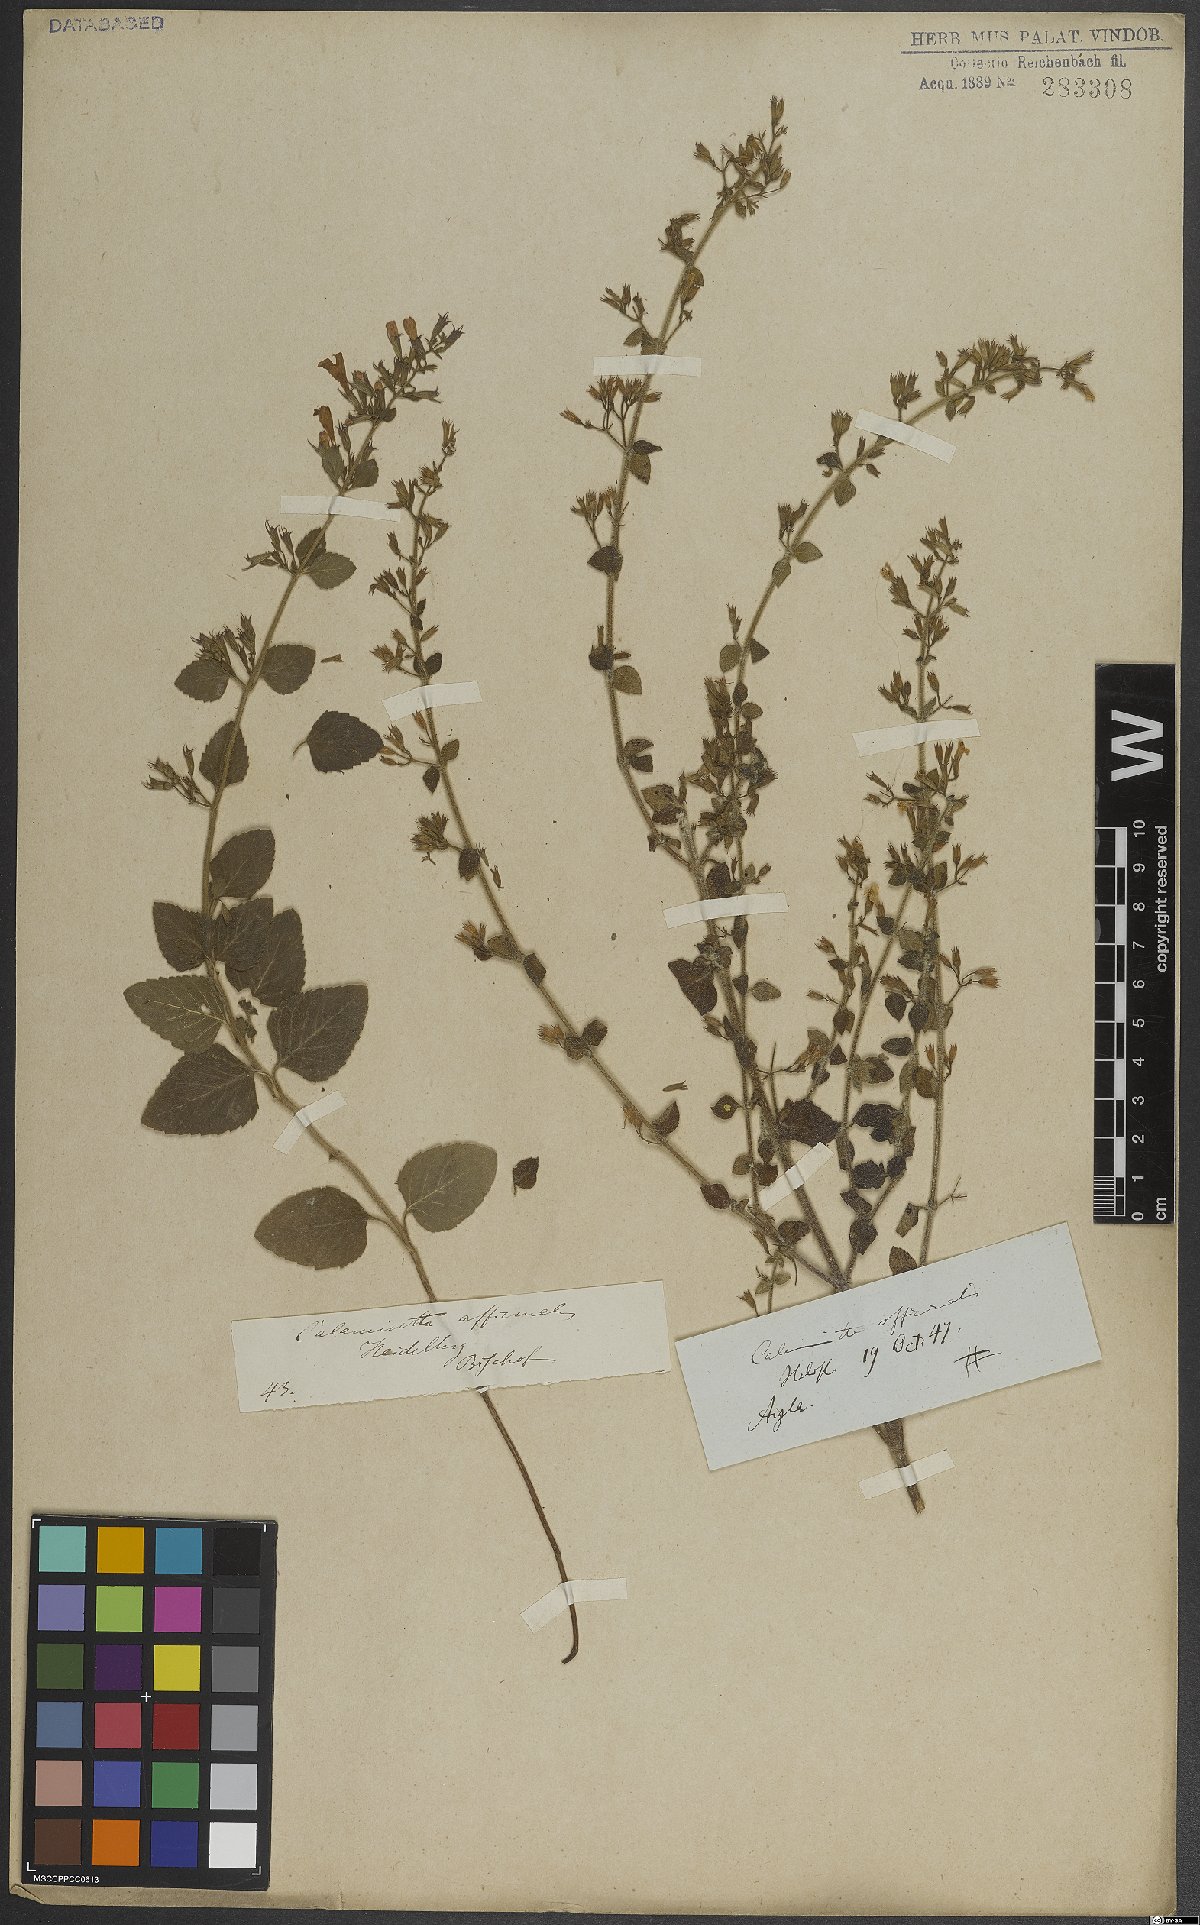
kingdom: Plantae
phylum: Tracheophyta
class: Magnoliopsida
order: Lamiales
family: Lamiaceae
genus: Clinopodium
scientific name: Clinopodium nepeta
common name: Lesser calamint
